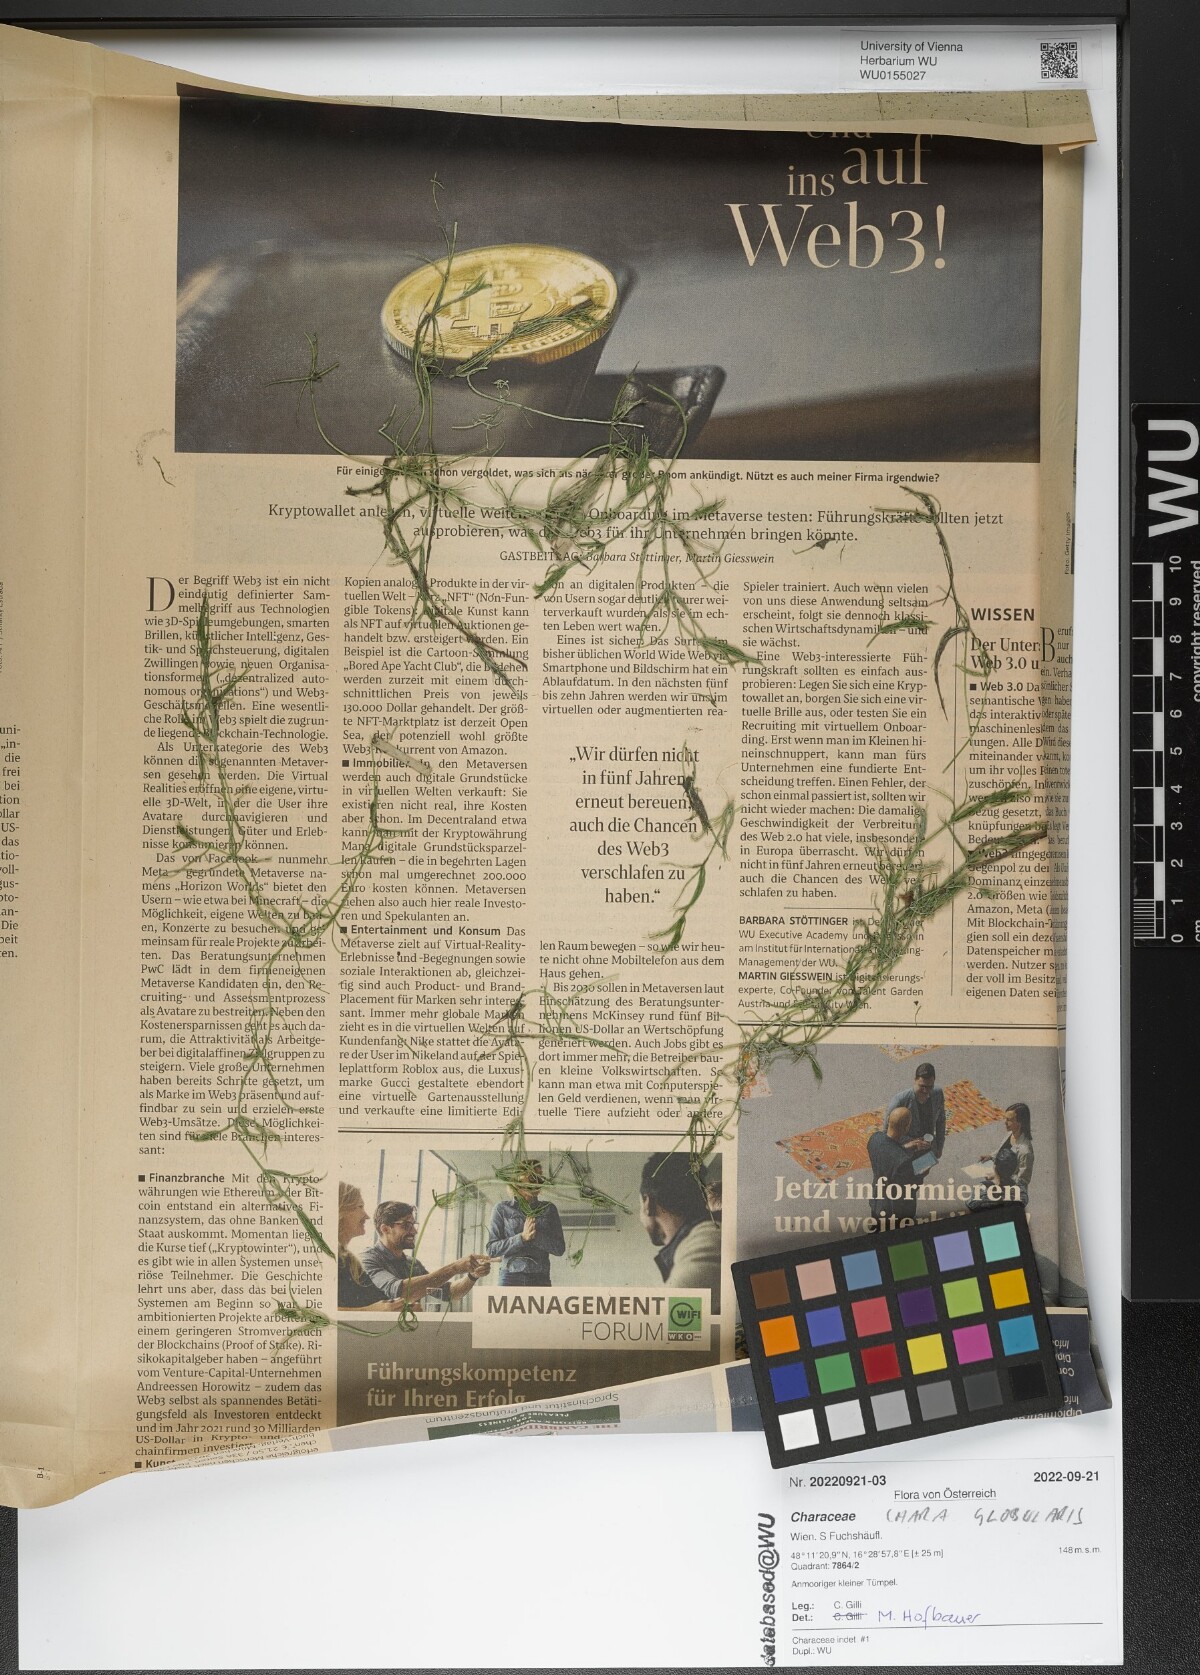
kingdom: Plantae
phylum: Charophyta
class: Charophyceae
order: Charales
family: Characeae
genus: Chara
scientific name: Chara globularis
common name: Fragile stonewort
